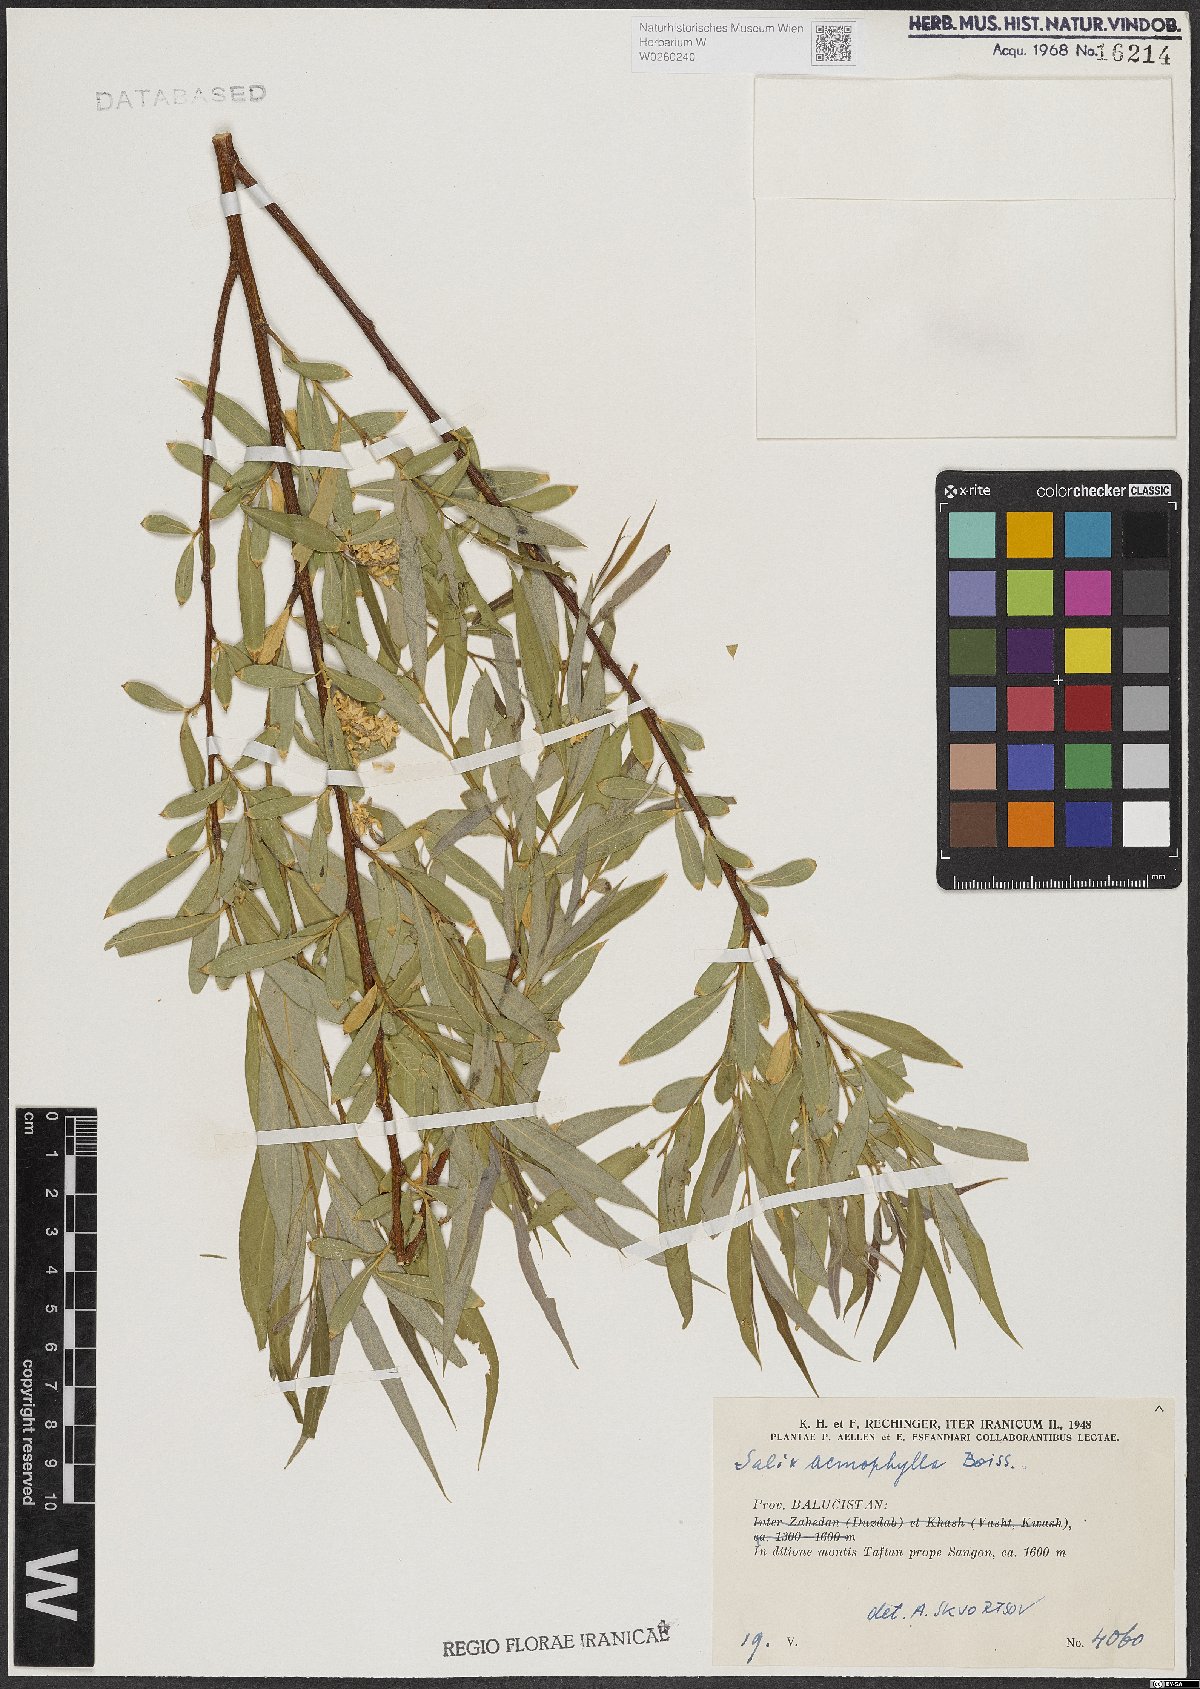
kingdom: Plantae
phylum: Tracheophyta
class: Magnoliopsida
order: Malpighiales
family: Salicaceae
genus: Salix
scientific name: Salix acmophylla
